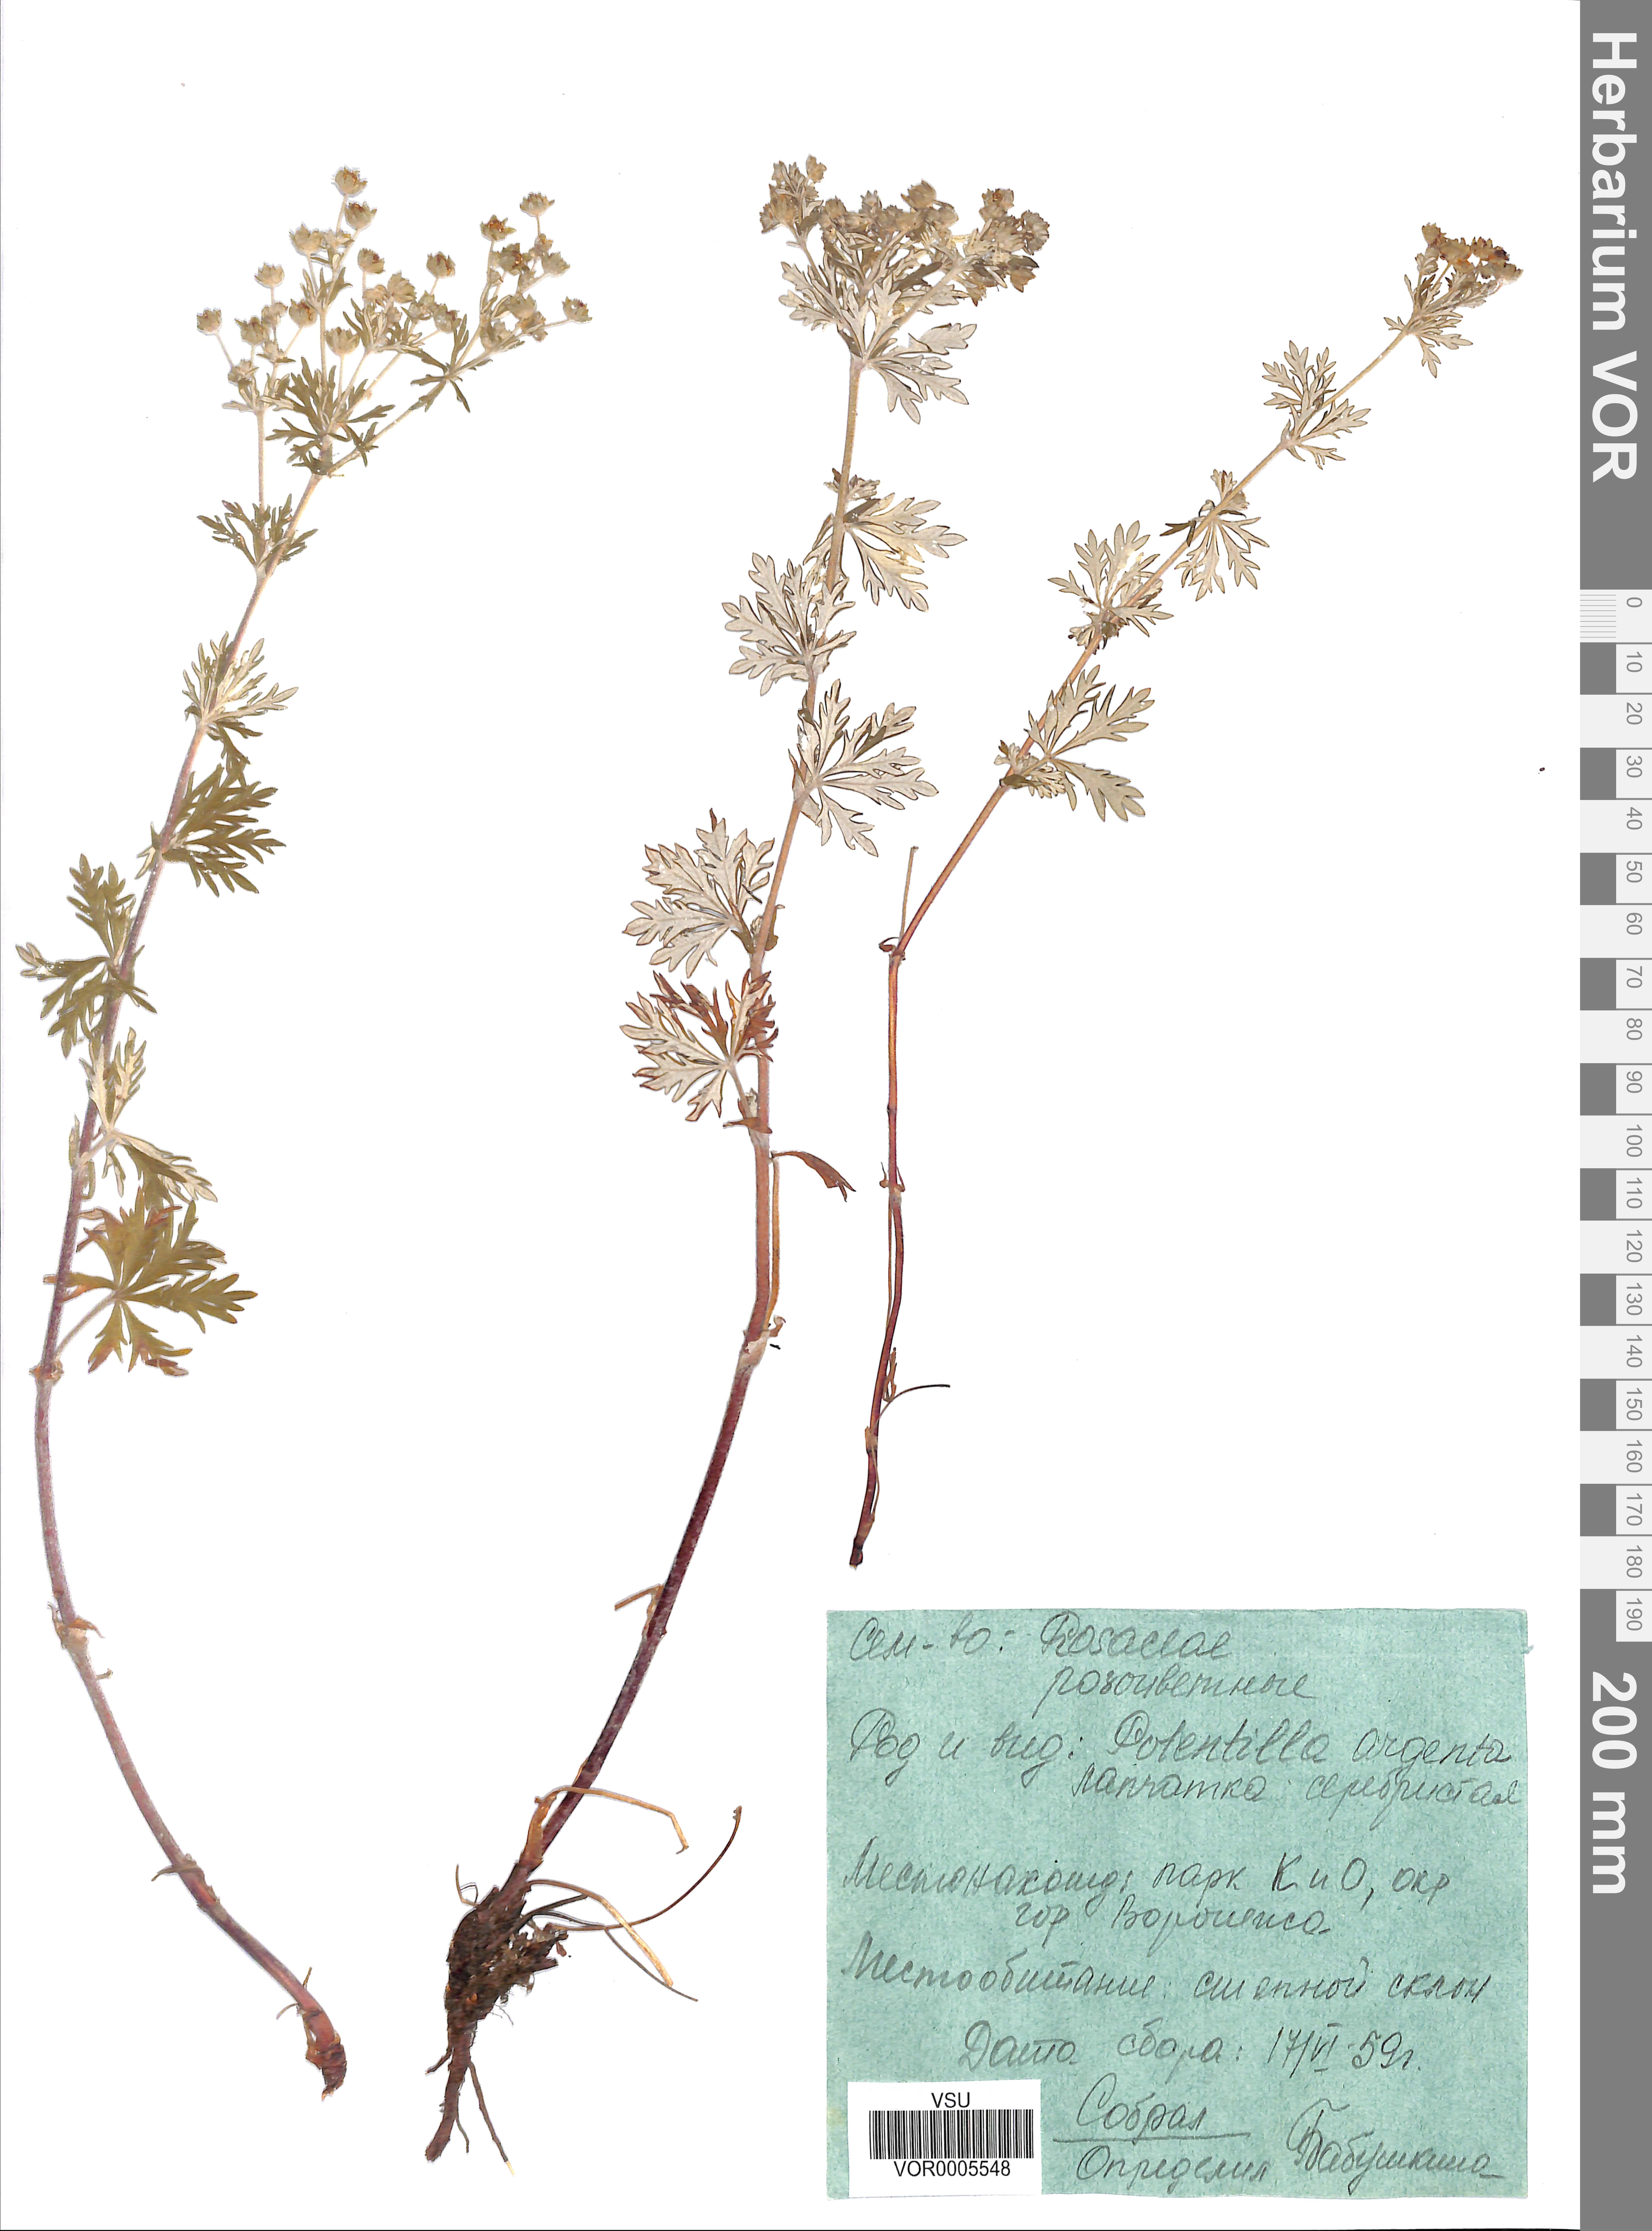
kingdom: Plantae
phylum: Tracheophyta
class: Magnoliopsida
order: Rosales
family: Rosaceae
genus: Potentilla
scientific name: Potentilla argentea
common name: Hoary cinquefoil
